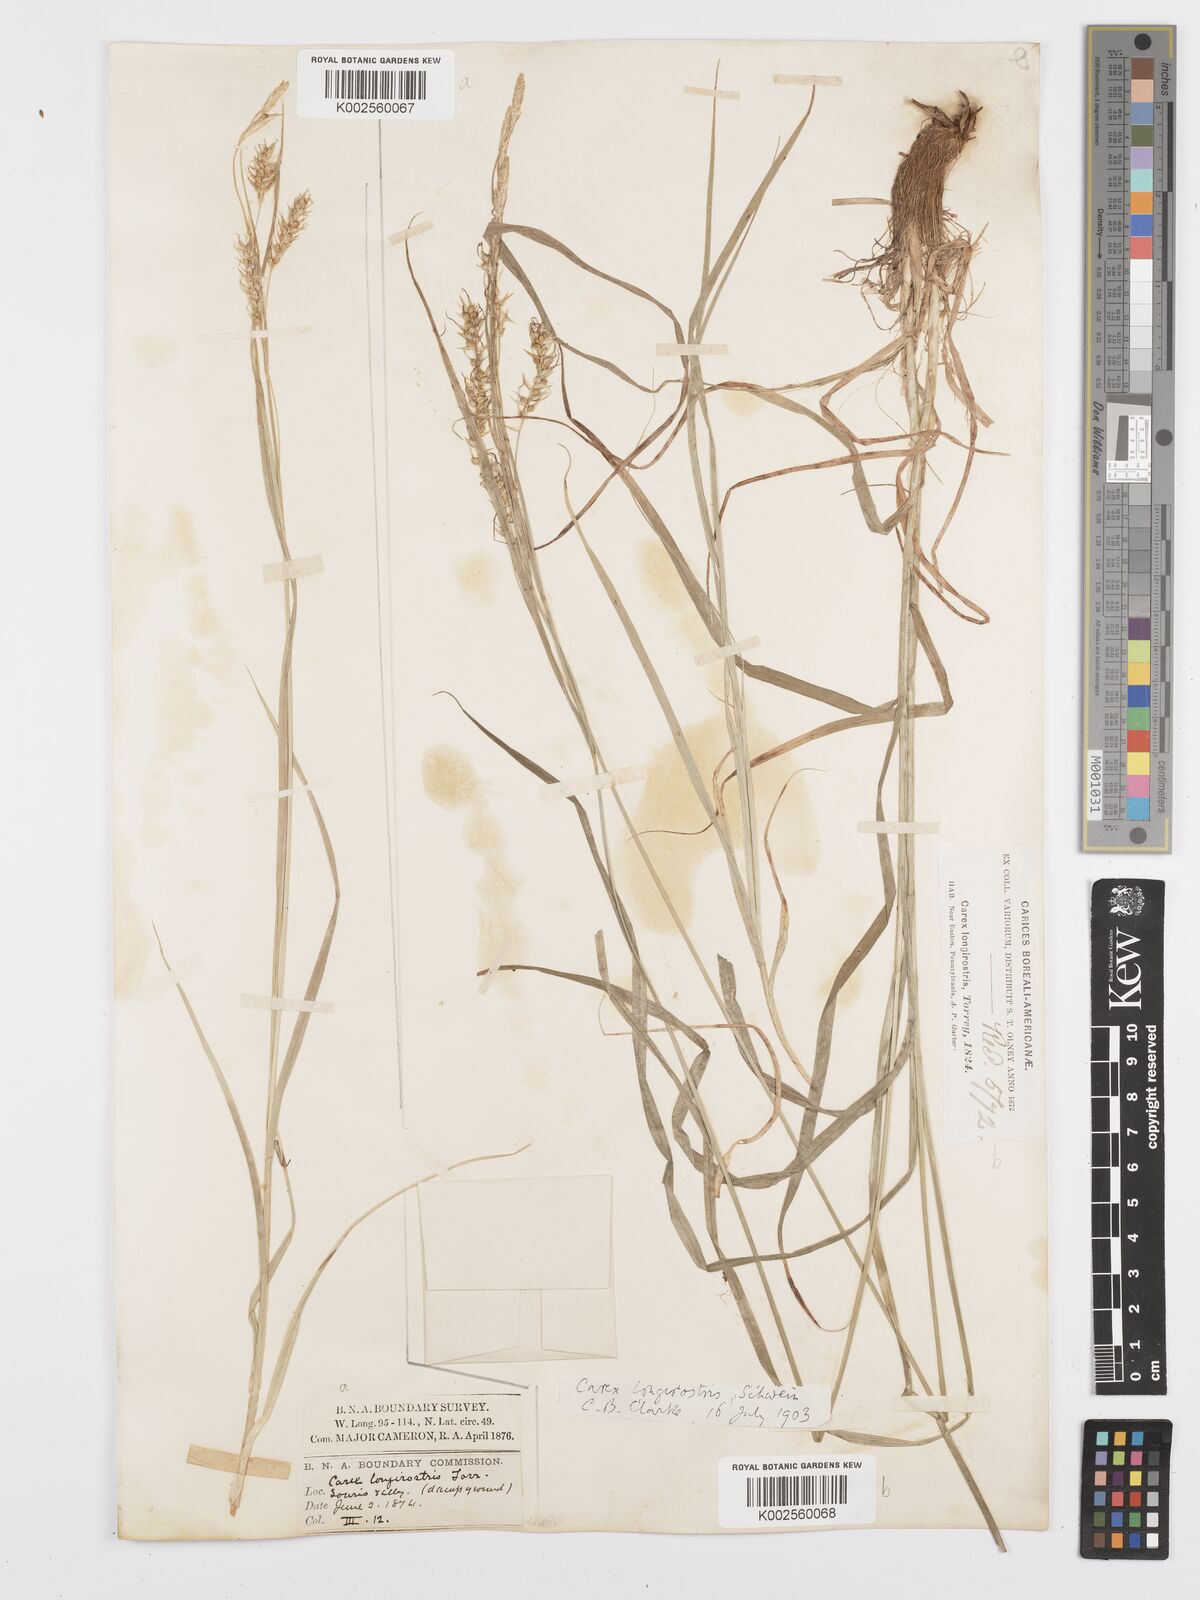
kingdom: Plantae
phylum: Tracheophyta
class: Liliopsida
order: Poales
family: Cyperaceae
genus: Carex
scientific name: Carex sprengelii
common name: Long-beaked sedge
